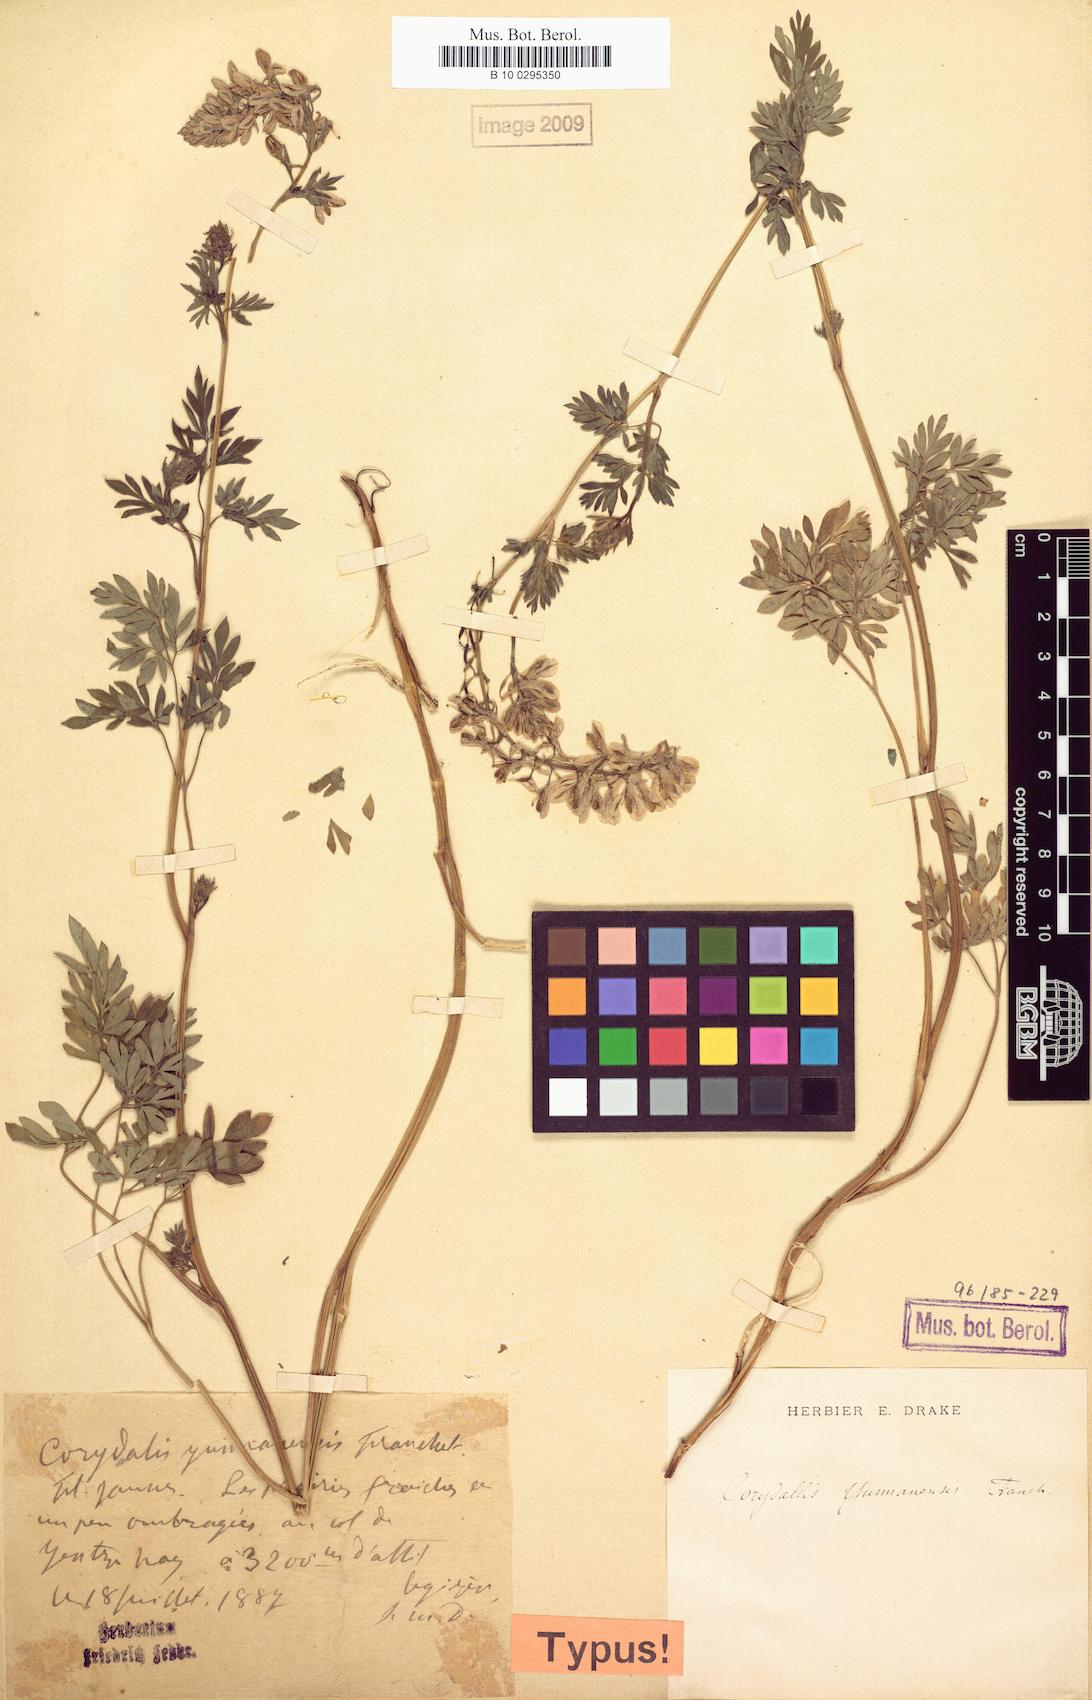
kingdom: Plantae
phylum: Tracheophyta
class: Magnoliopsida
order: Ranunculales
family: Papaveraceae
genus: Corydalis
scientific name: Corydalis yunnanensis
